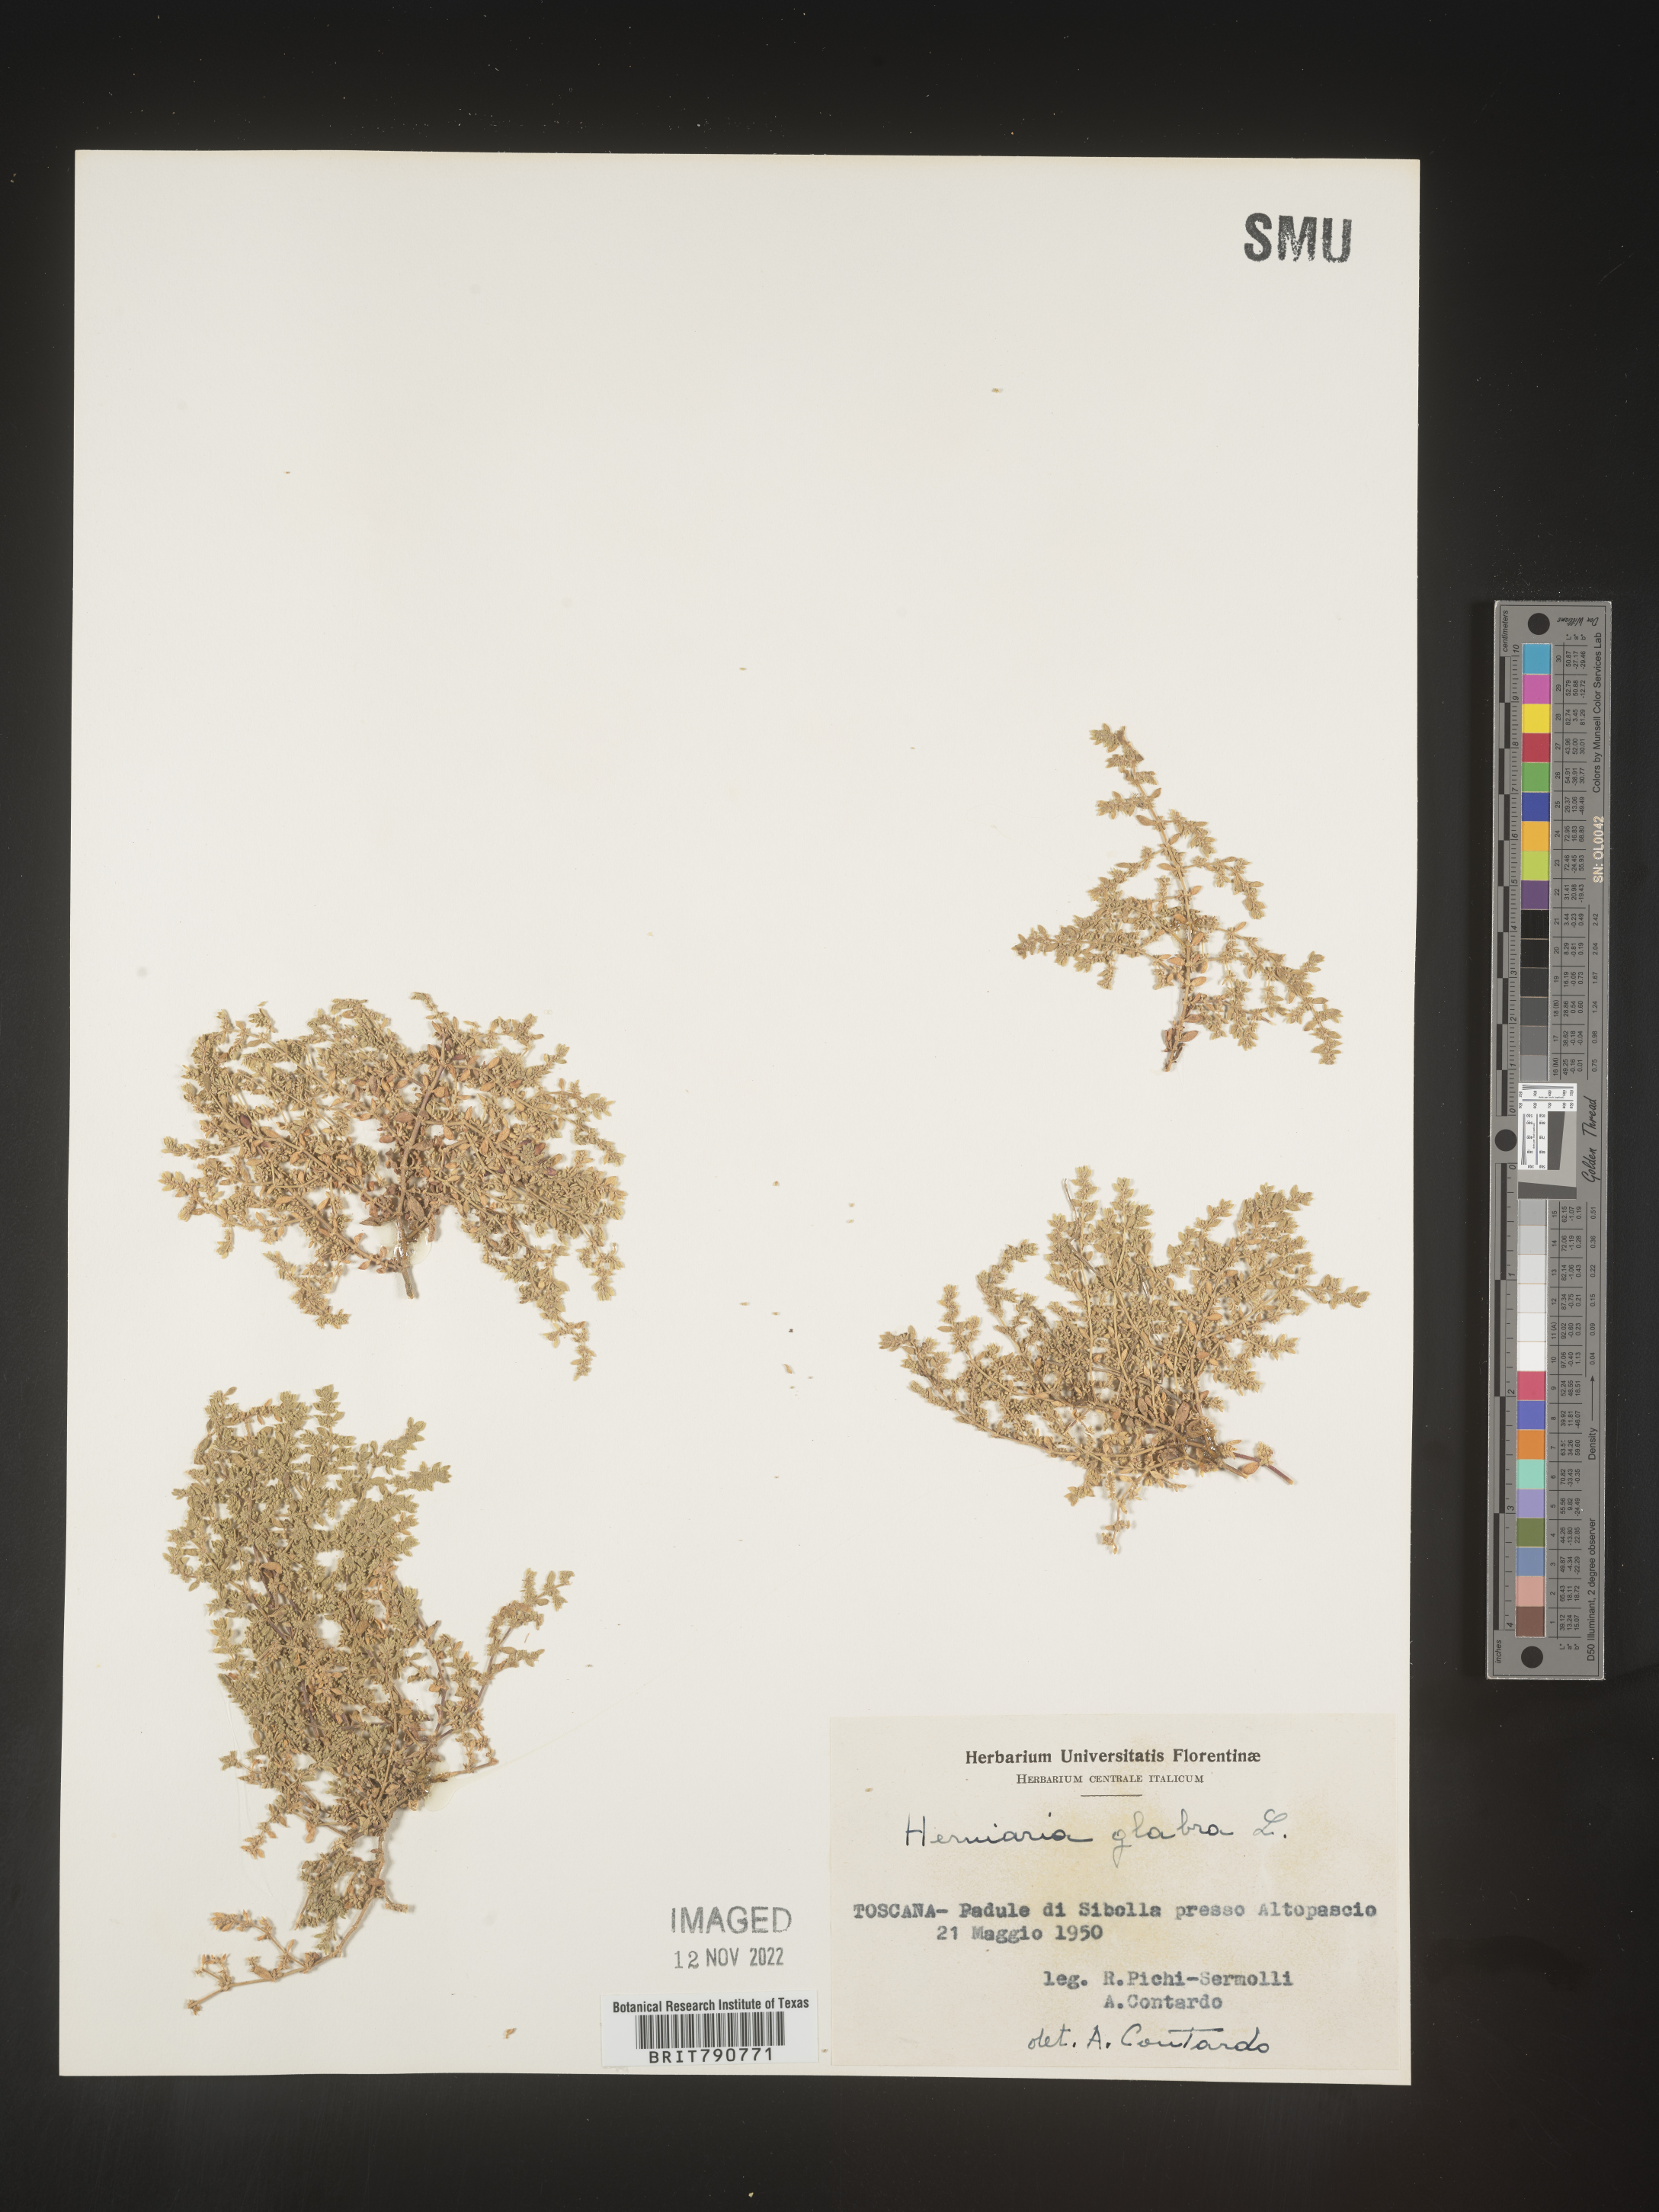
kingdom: Plantae
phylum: Tracheophyta
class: Magnoliopsida
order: Caryophyllales
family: Caryophyllaceae
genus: Herniaria
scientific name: Herniaria
